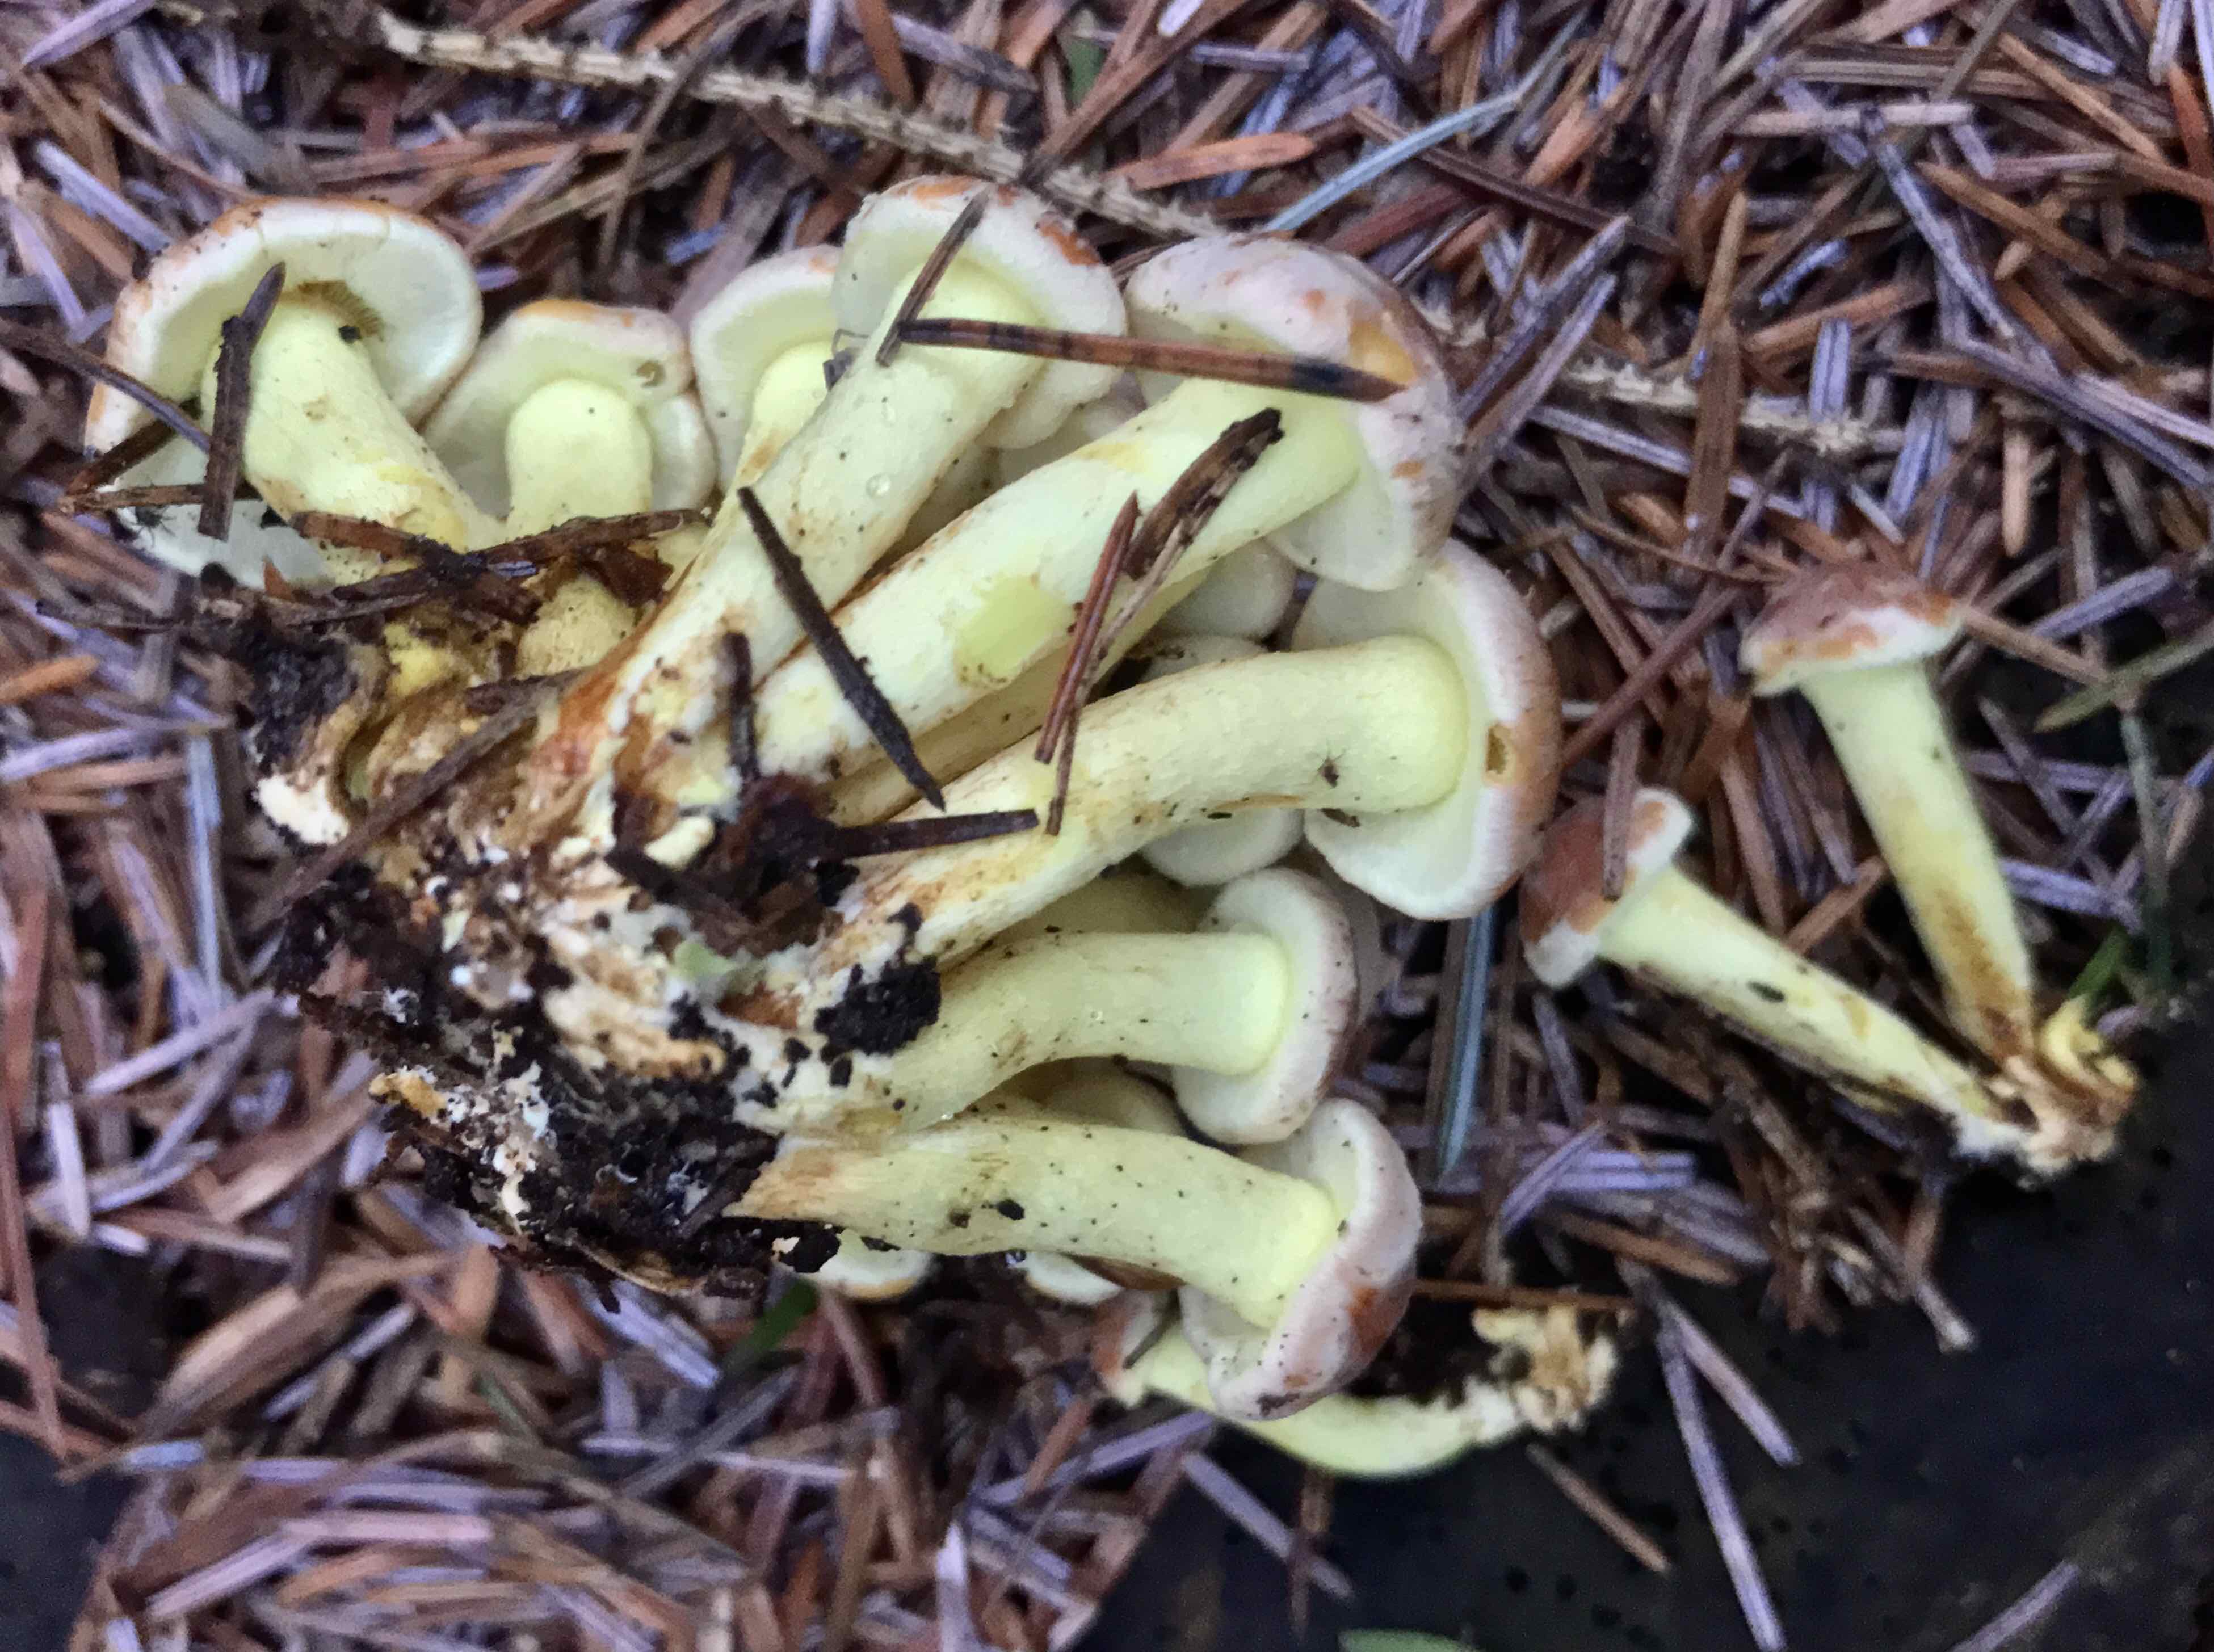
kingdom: Fungi
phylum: Basidiomycota
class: Agaricomycetes
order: Agaricales
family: Strophariaceae
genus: Hypholoma
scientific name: Hypholoma fasciculare
